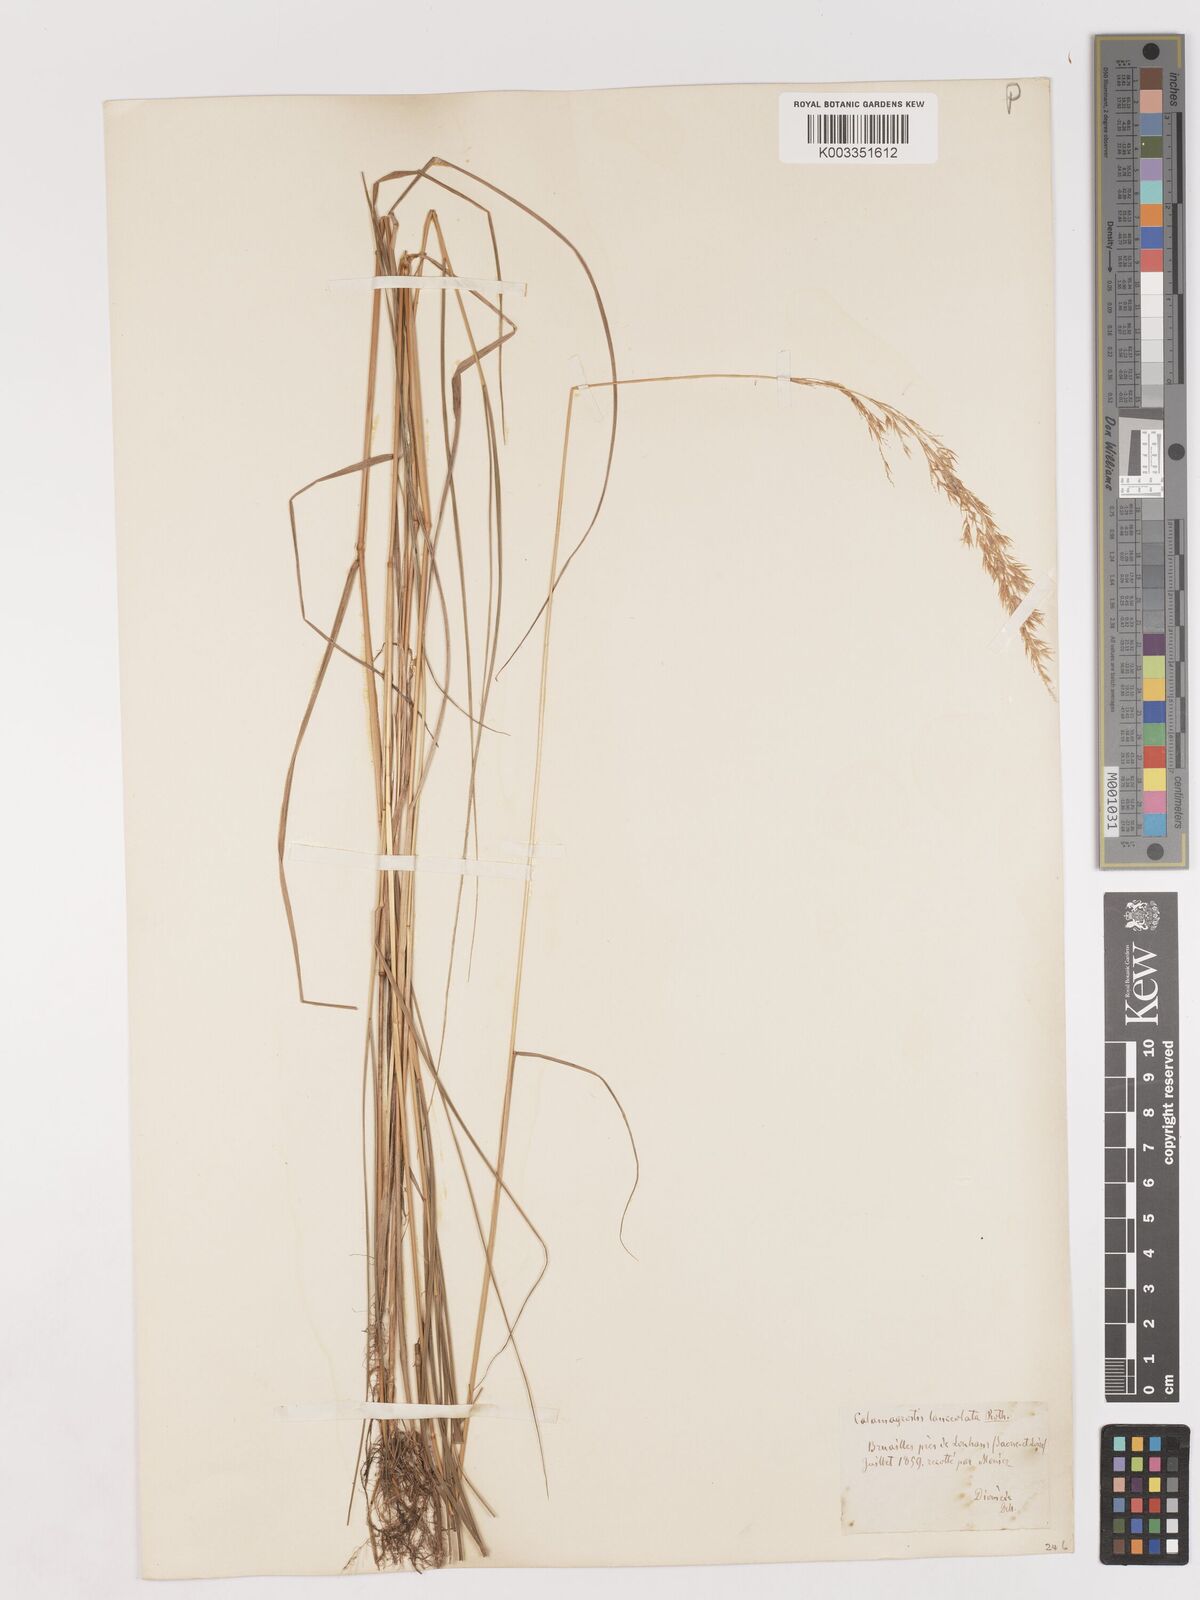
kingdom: Plantae
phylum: Tracheophyta
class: Liliopsida
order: Poales
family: Poaceae
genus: Calamagrostis
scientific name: Calamagrostis canescens
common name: Purple small-reed
